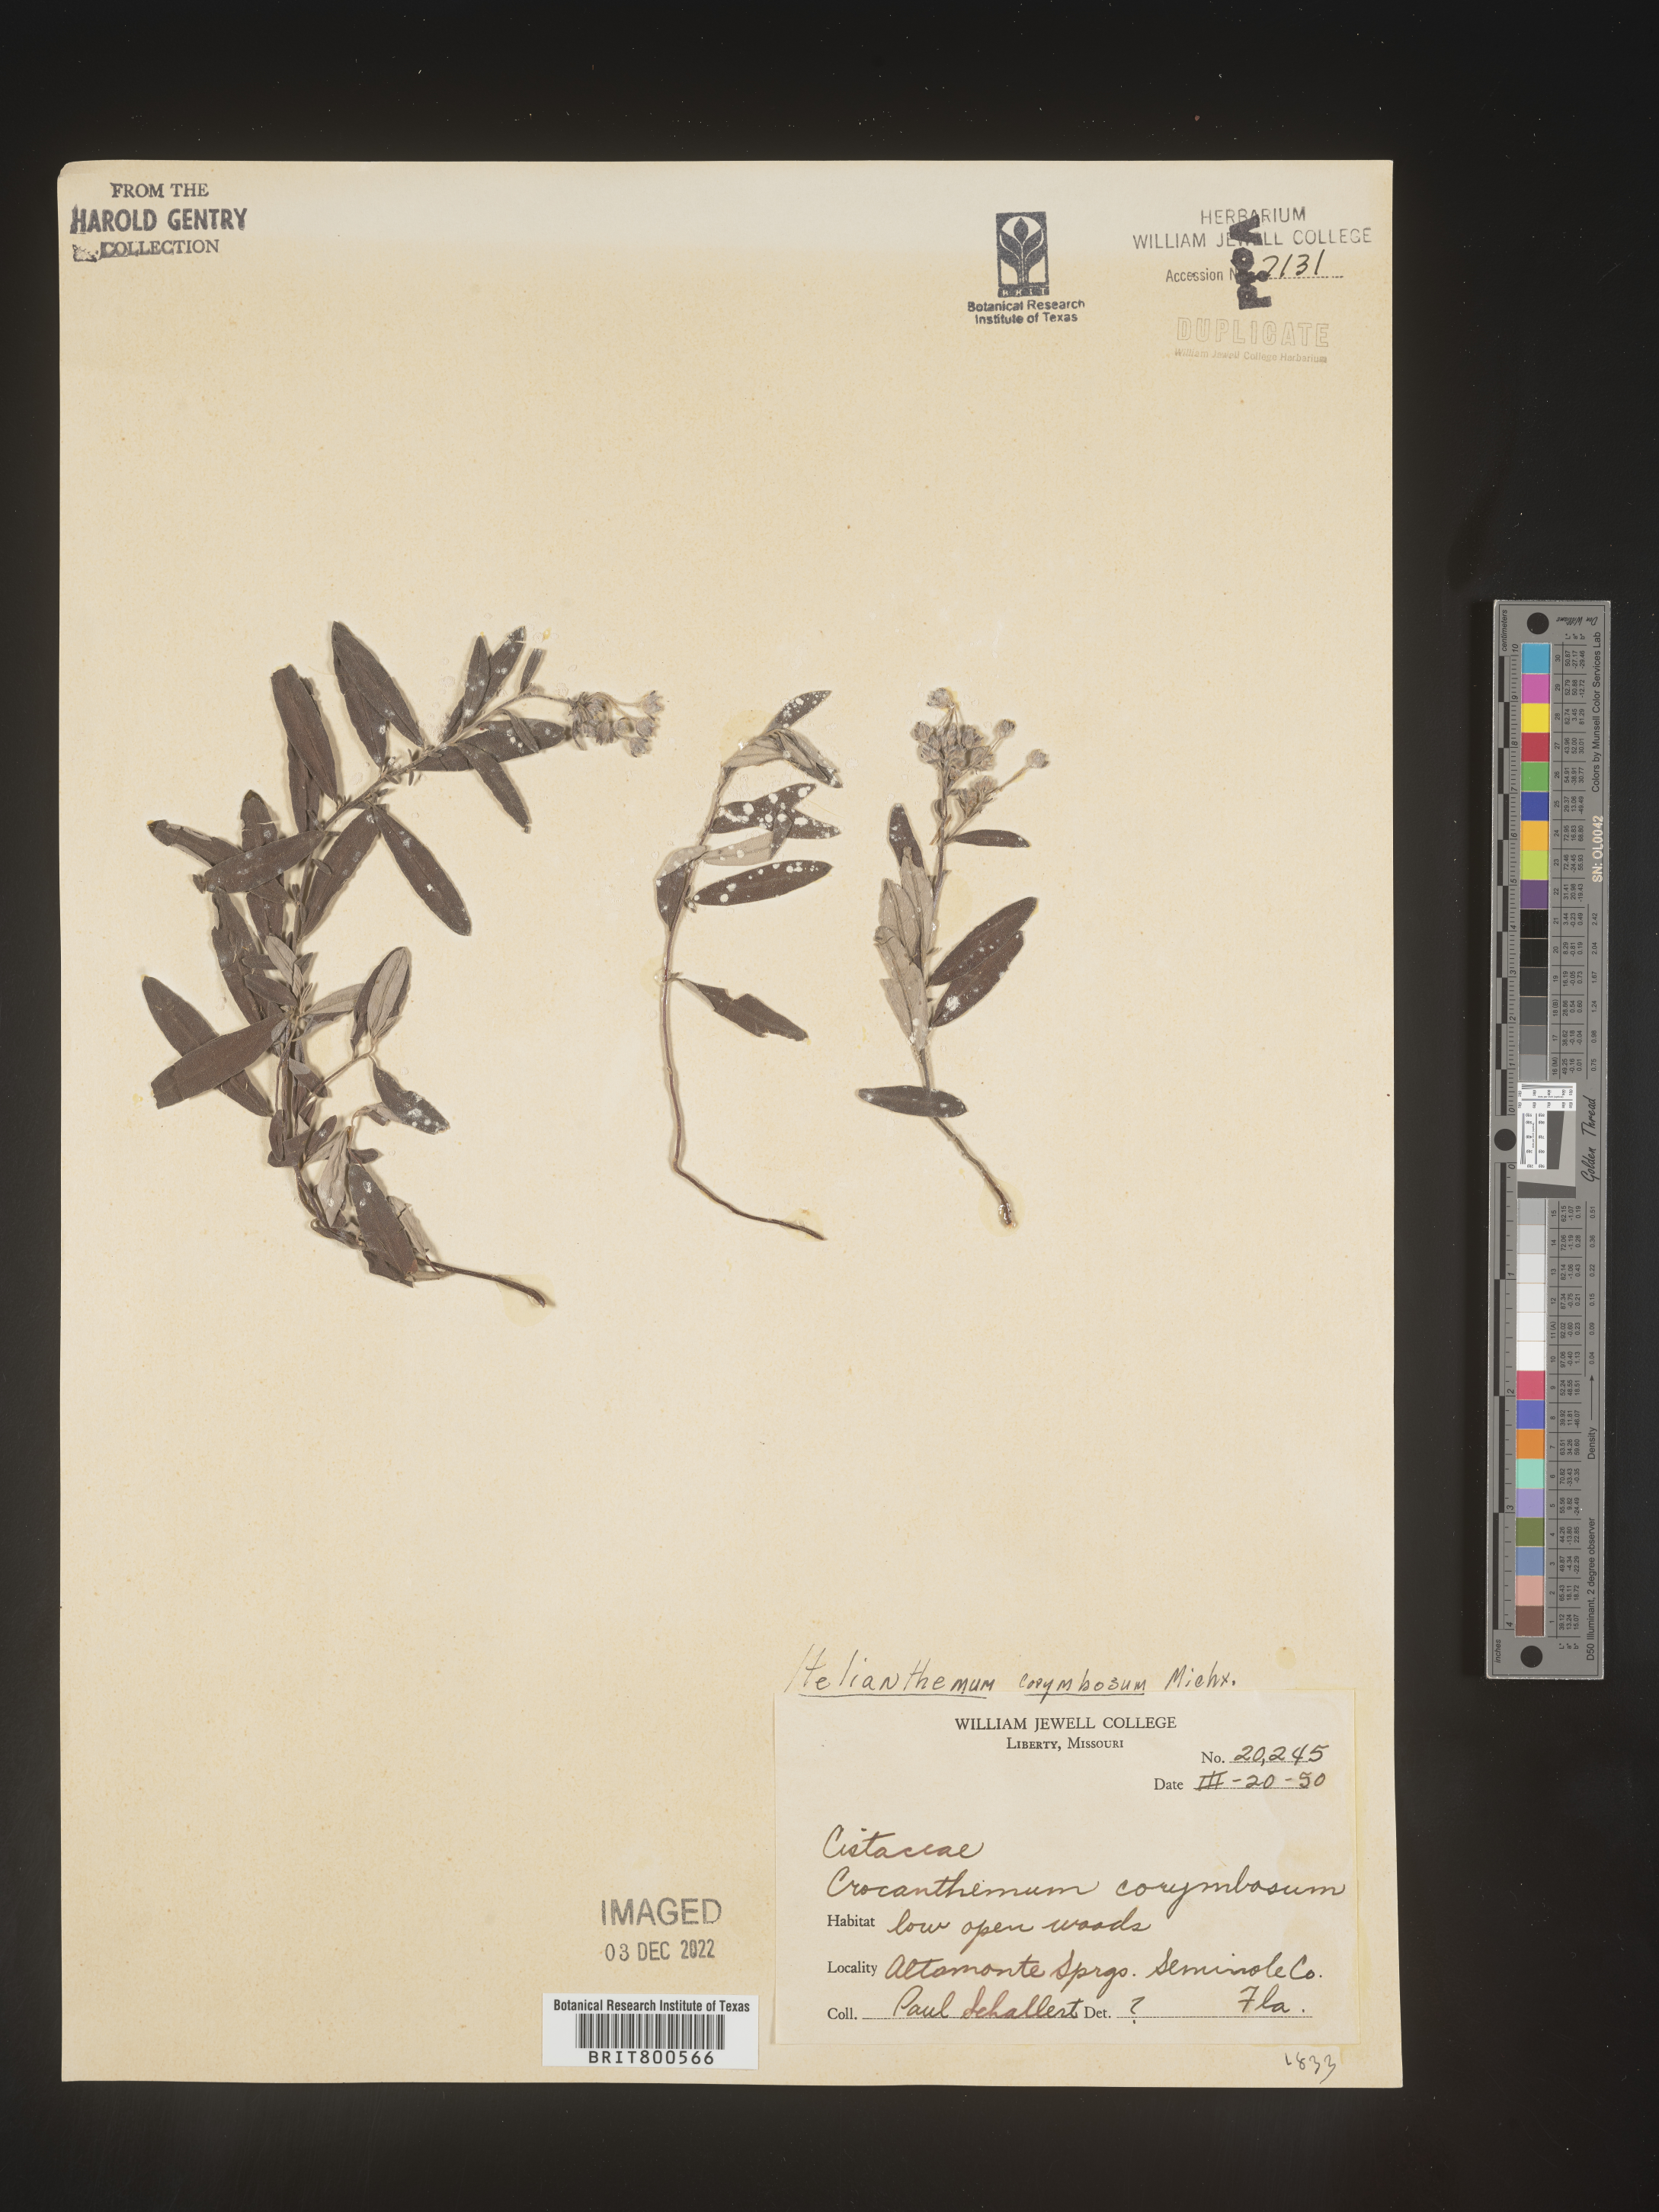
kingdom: Plantae
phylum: Tracheophyta
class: Magnoliopsida
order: Malvales
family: Cistaceae
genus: Crocanthemum
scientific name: Crocanthemum corymbosum
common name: Pinebarren sun-rose
